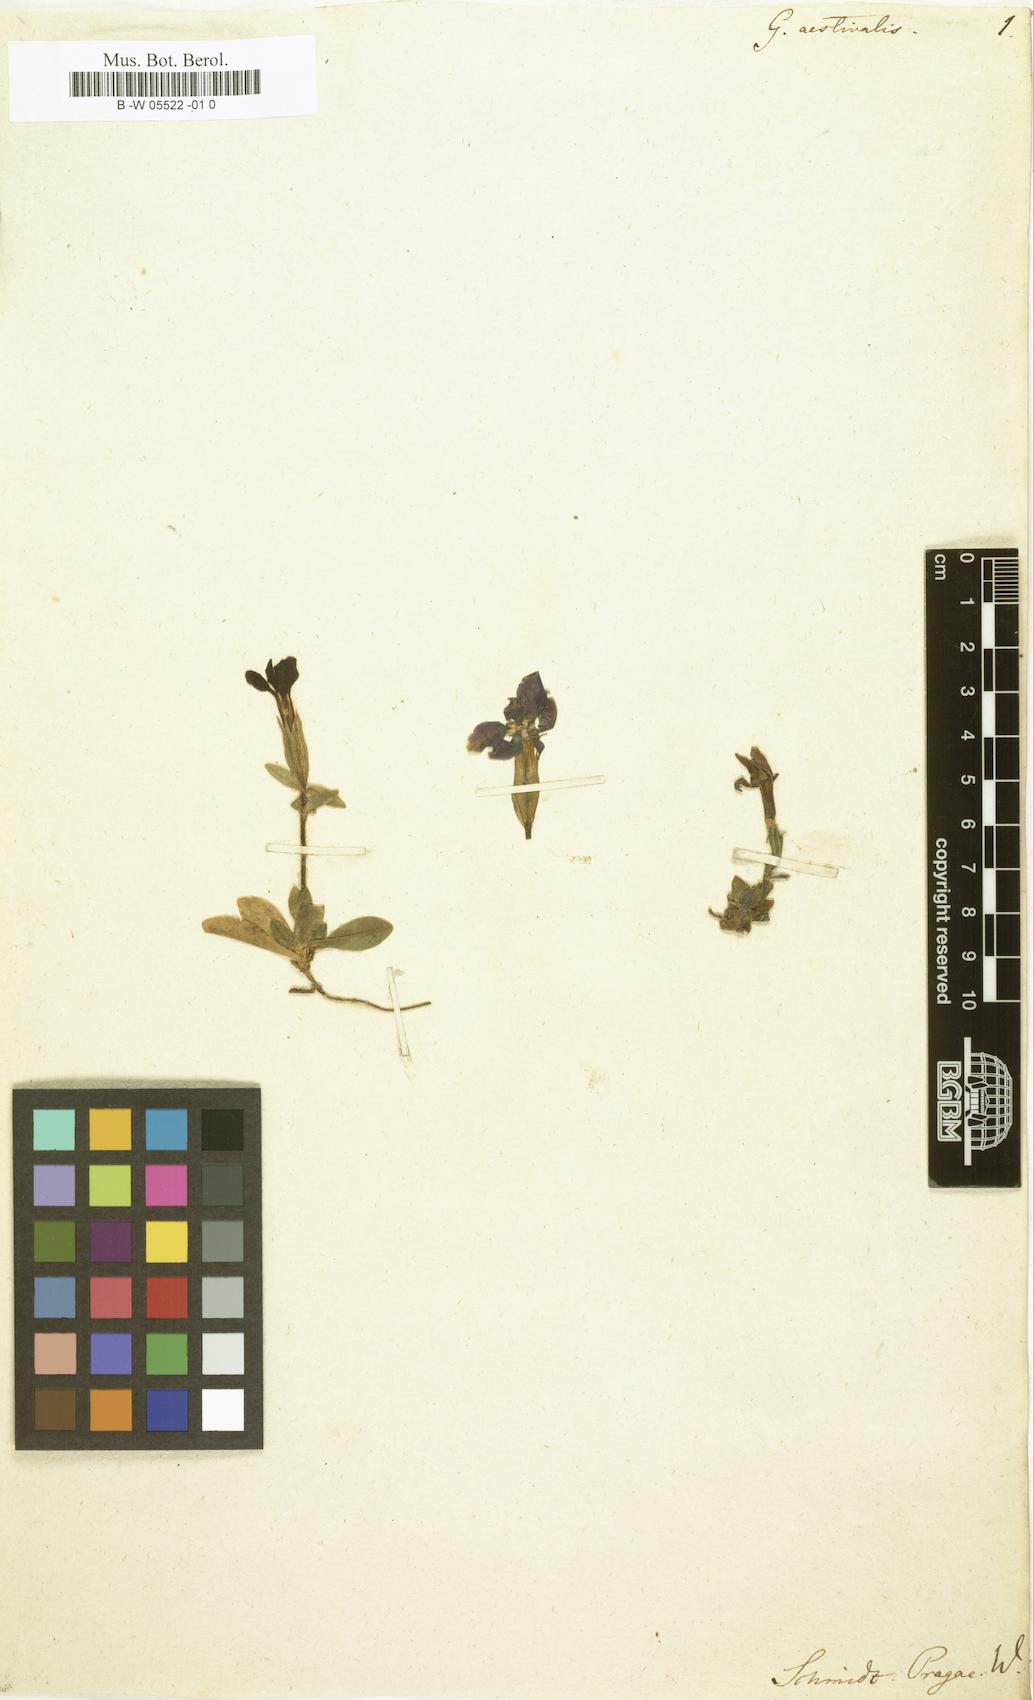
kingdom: Plantae
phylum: Tracheophyta
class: Magnoliopsida
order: Gentianales
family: Gentianaceae
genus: Gentiana
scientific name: Gentiana
